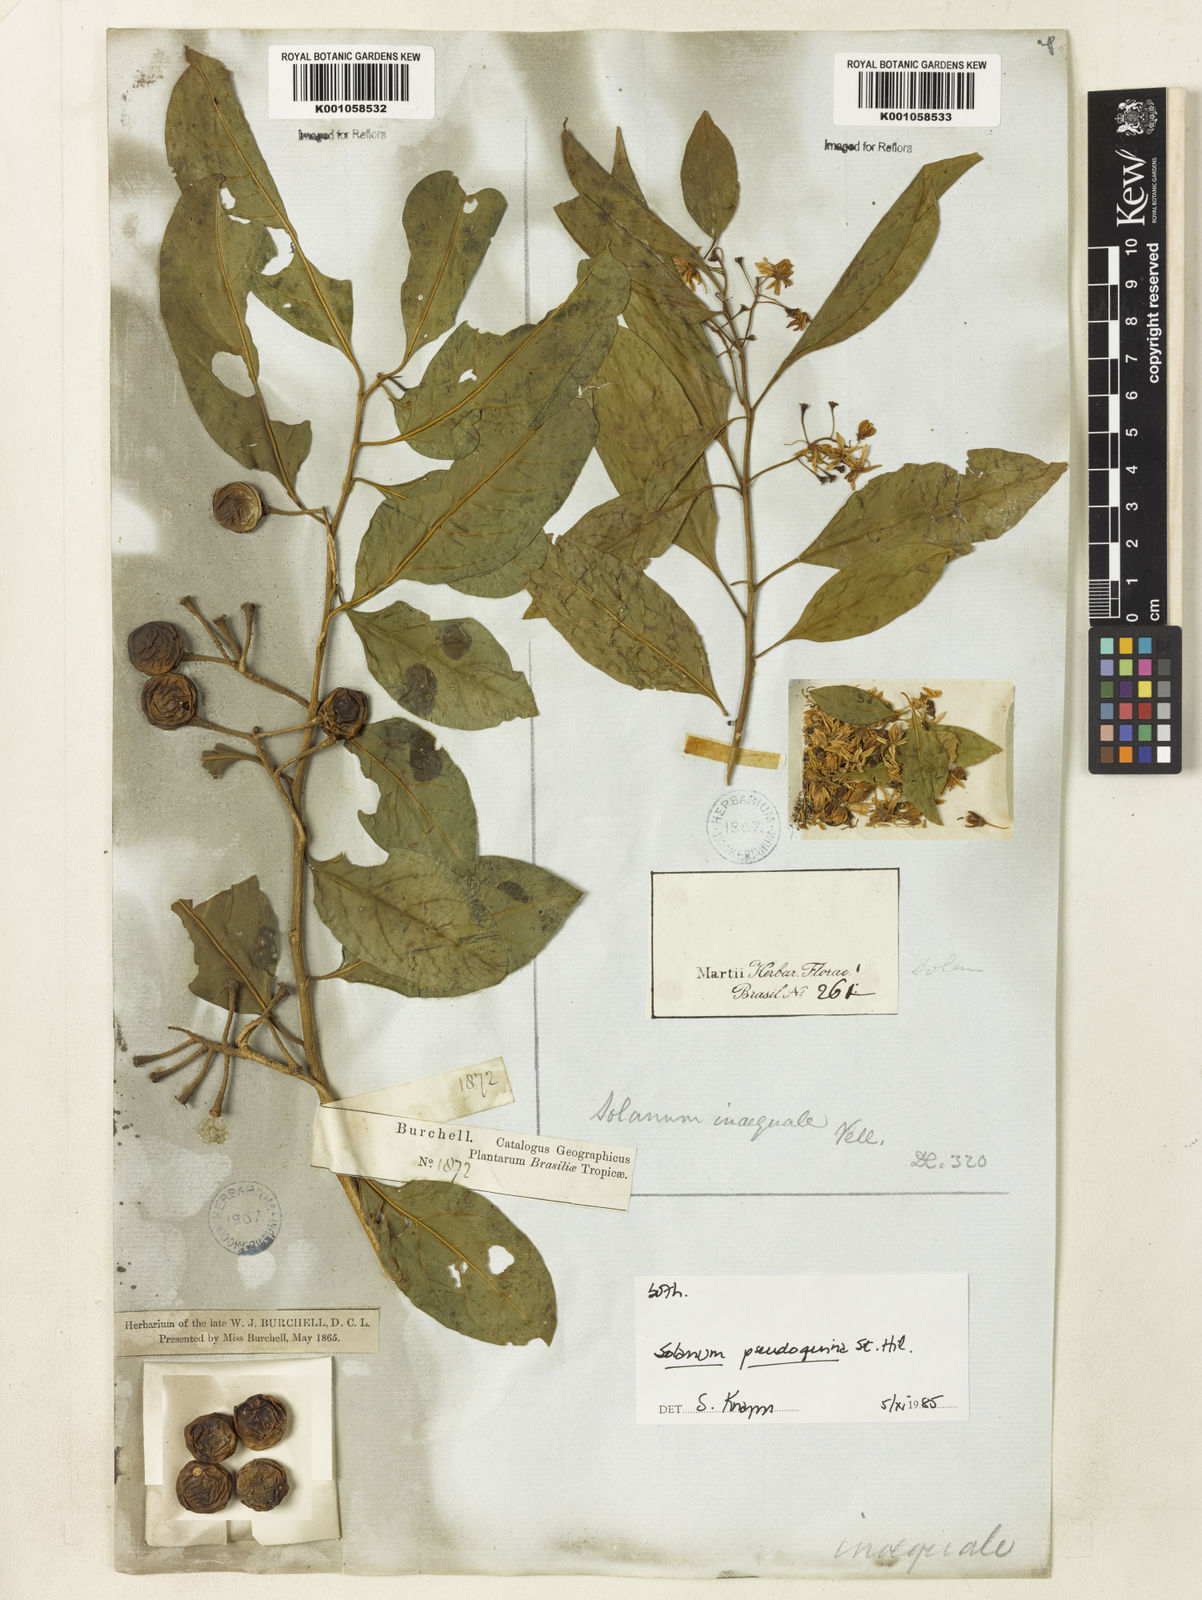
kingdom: Plantae
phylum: Tracheophyta
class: Magnoliopsida
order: Solanales
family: Solanaceae
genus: Solanum
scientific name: Solanum pseudoquina
